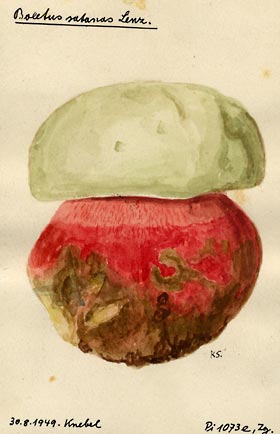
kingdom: Fungi
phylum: Basidiomycota
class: Agaricomycetes
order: Boletales
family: Boletaceae
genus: Rubroboletus
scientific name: Rubroboletus satanas
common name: Devil's bolete
